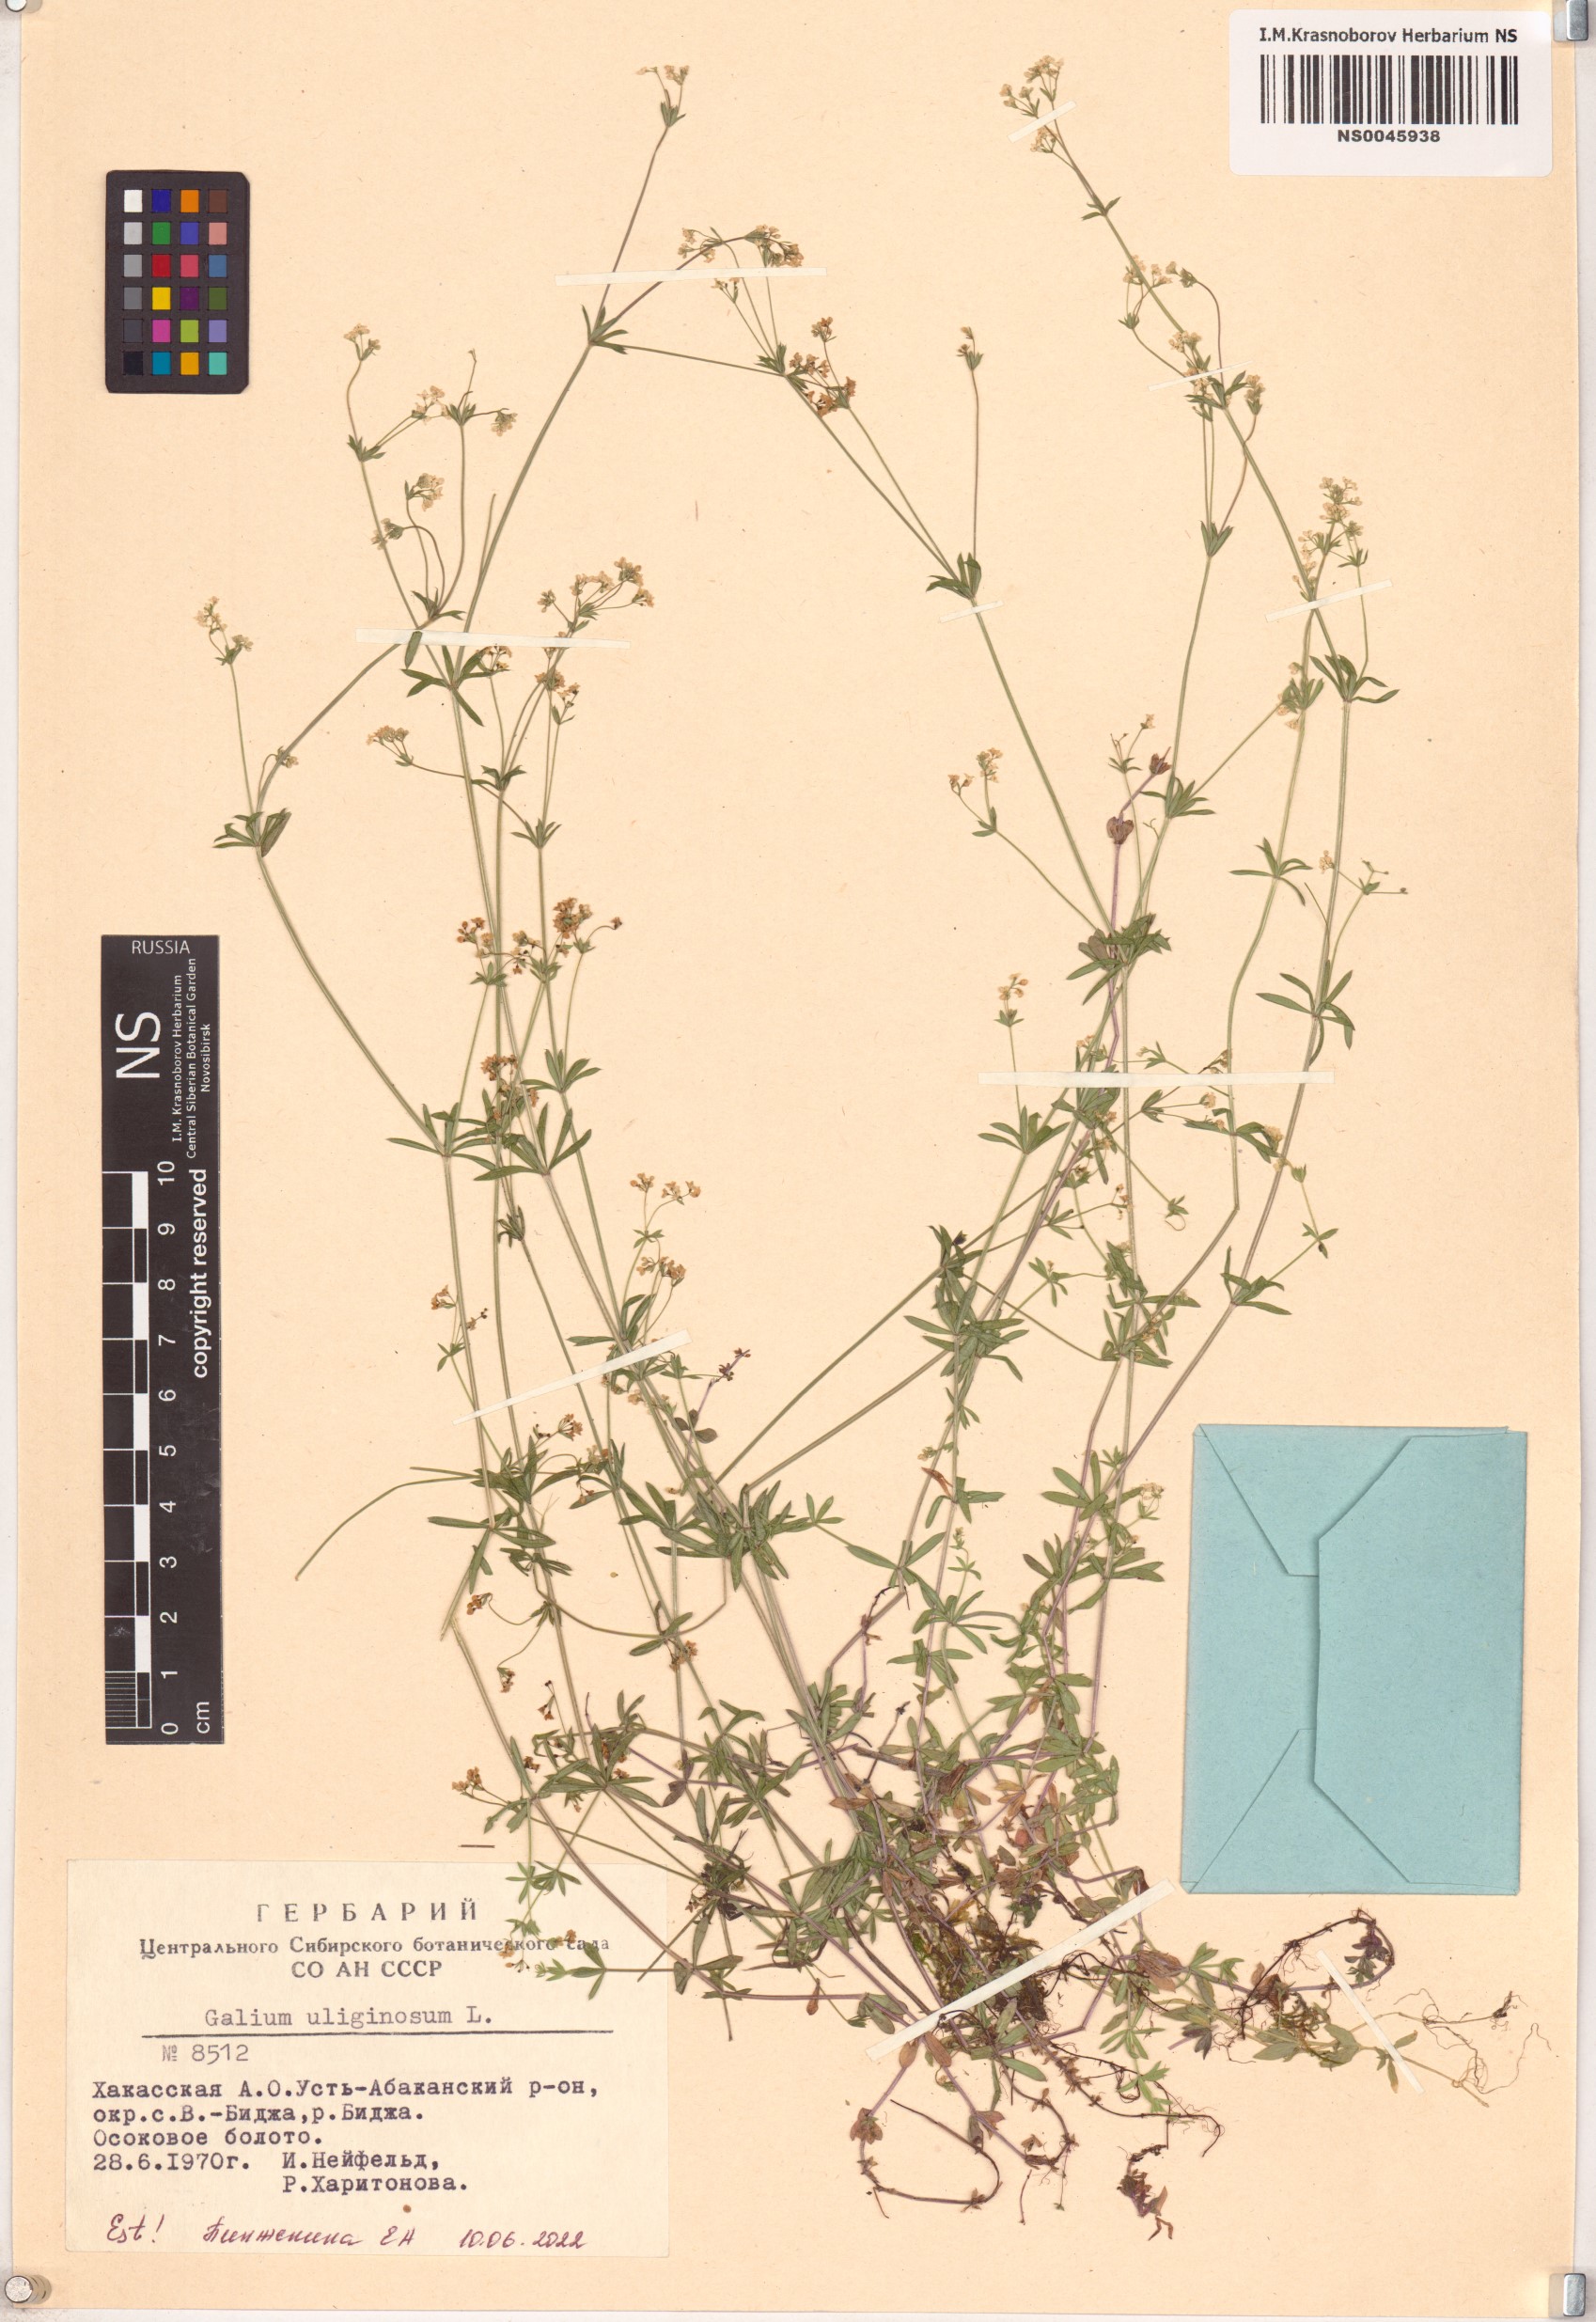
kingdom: Plantae
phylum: Tracheophyta
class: Magnoliopsida
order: Gentianales
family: Rubiaceae
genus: Galium
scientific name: Galium uliginosum
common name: Fen bedstraw
